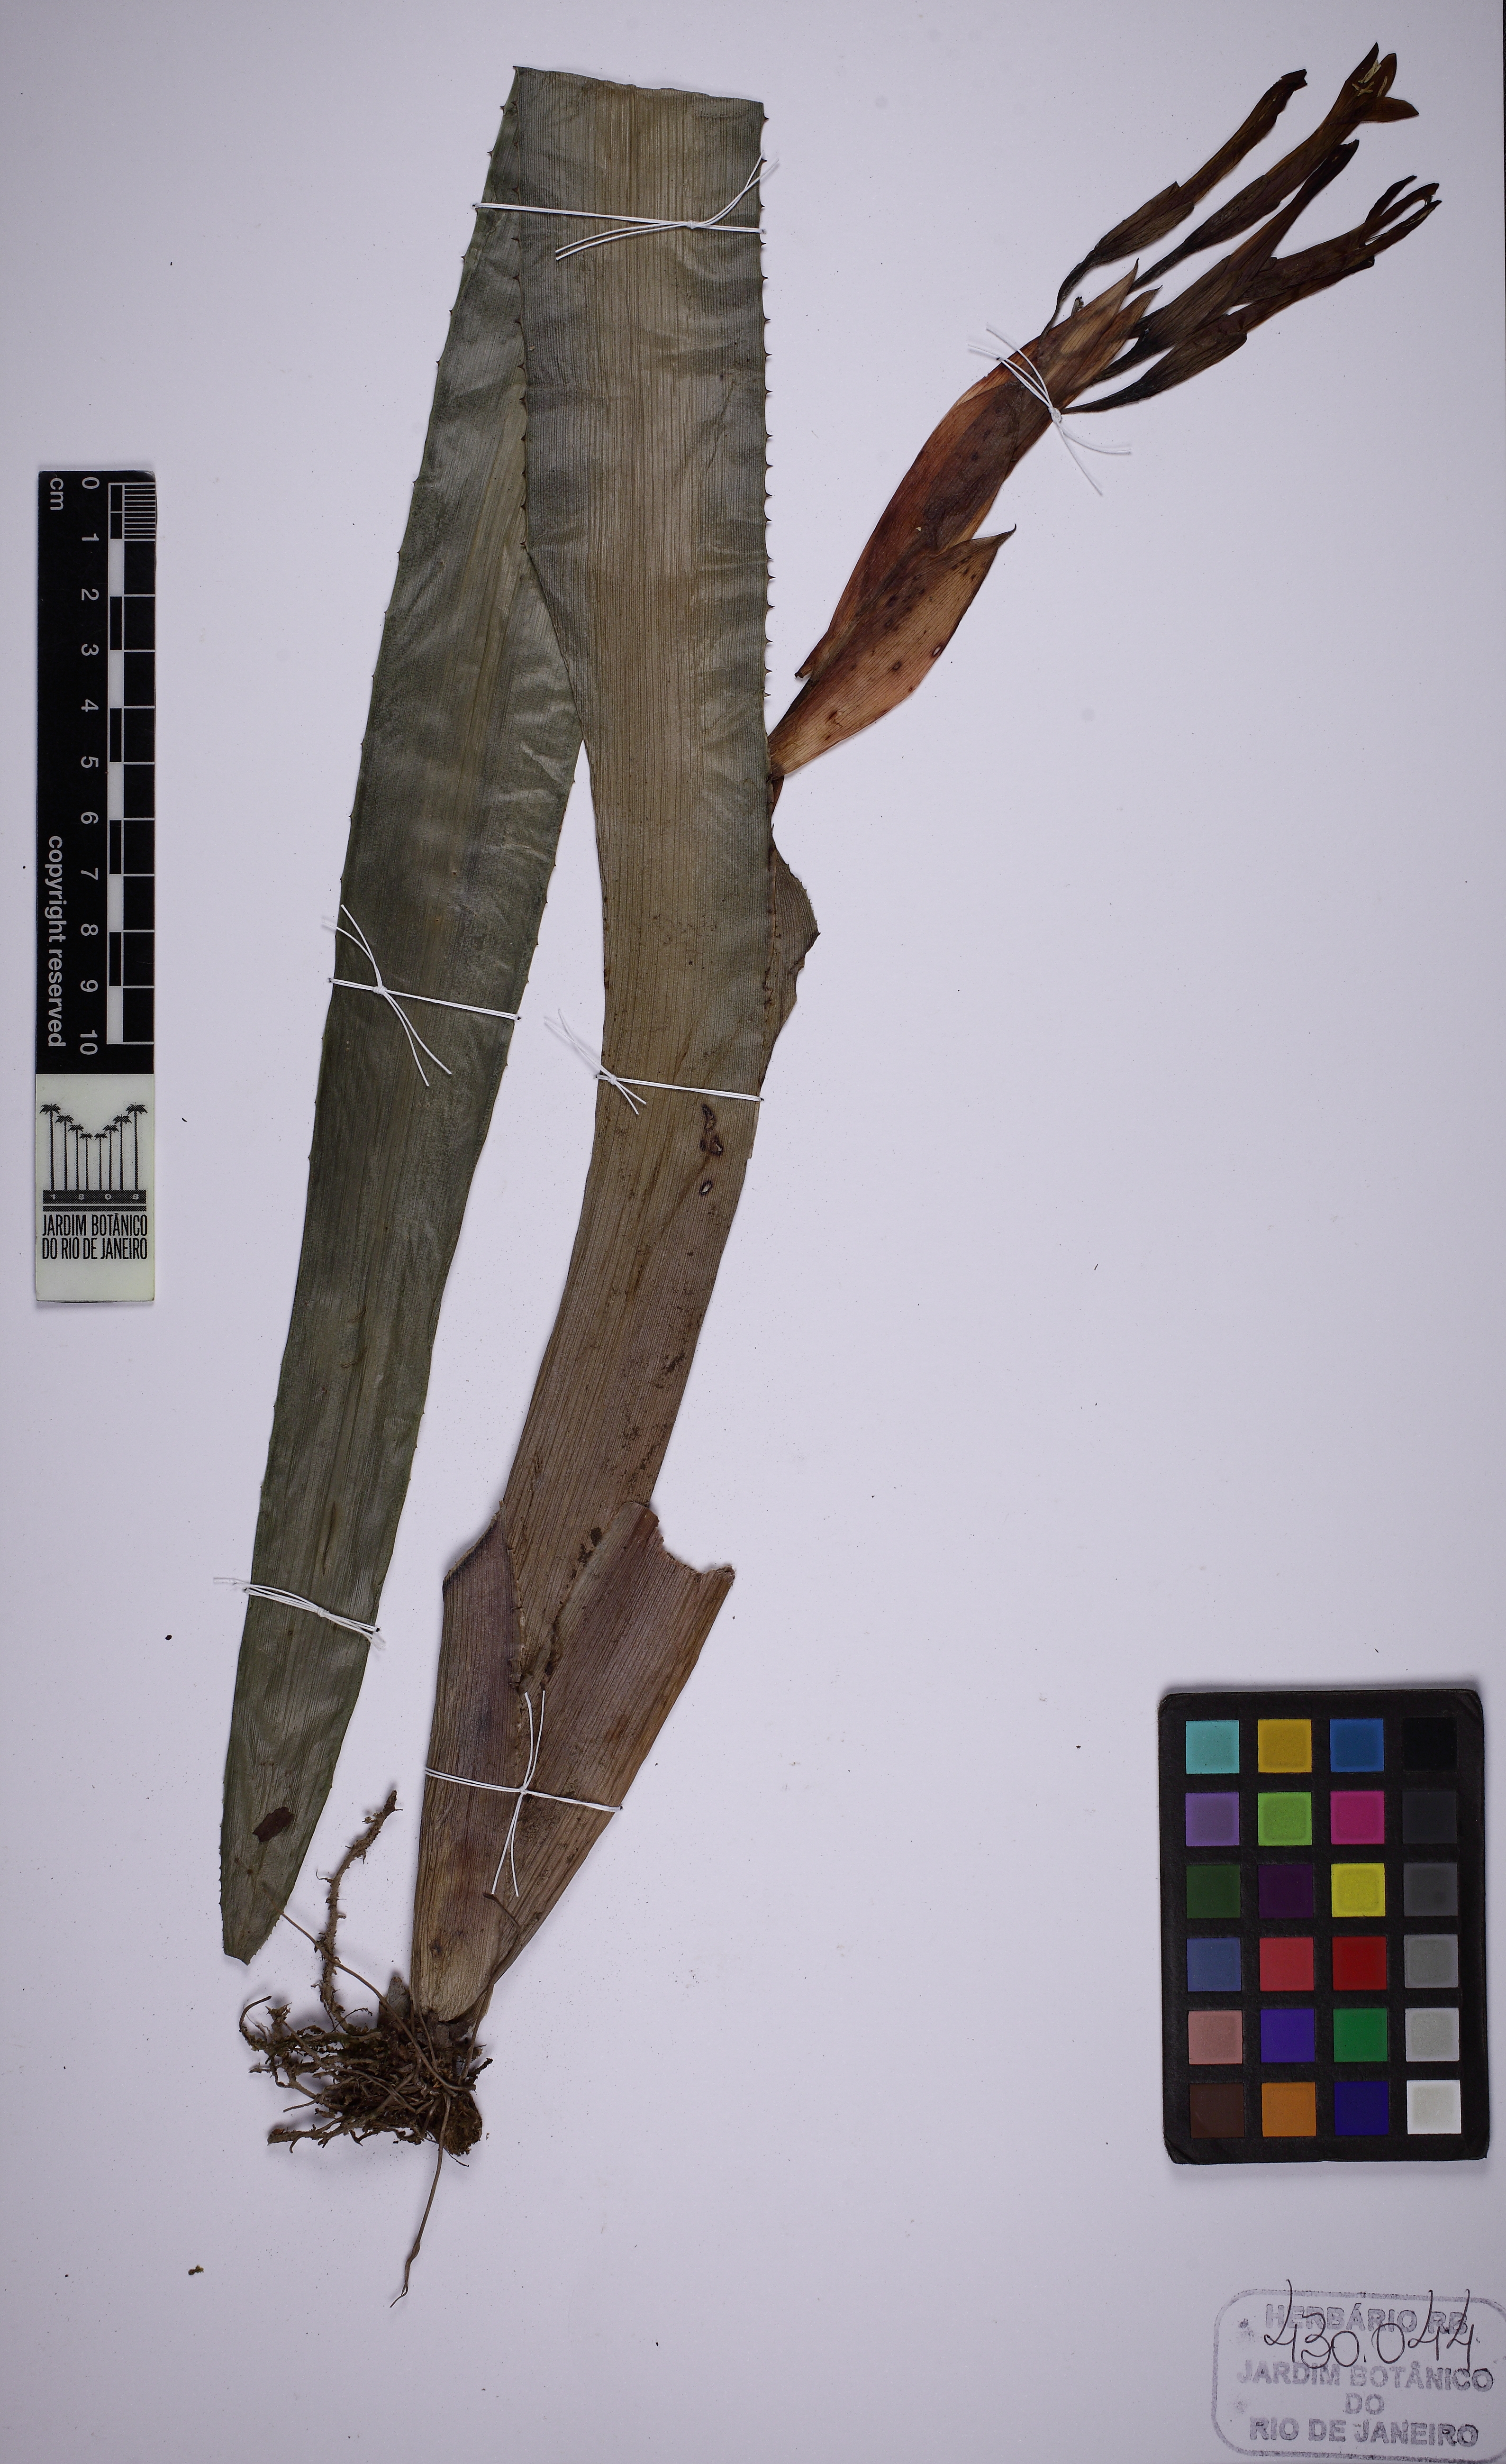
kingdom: Plantae
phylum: Tracheophyta
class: Liliopsida
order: Poales
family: Bromeliaceae
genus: Billbergia
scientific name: Billbergia saundersii
